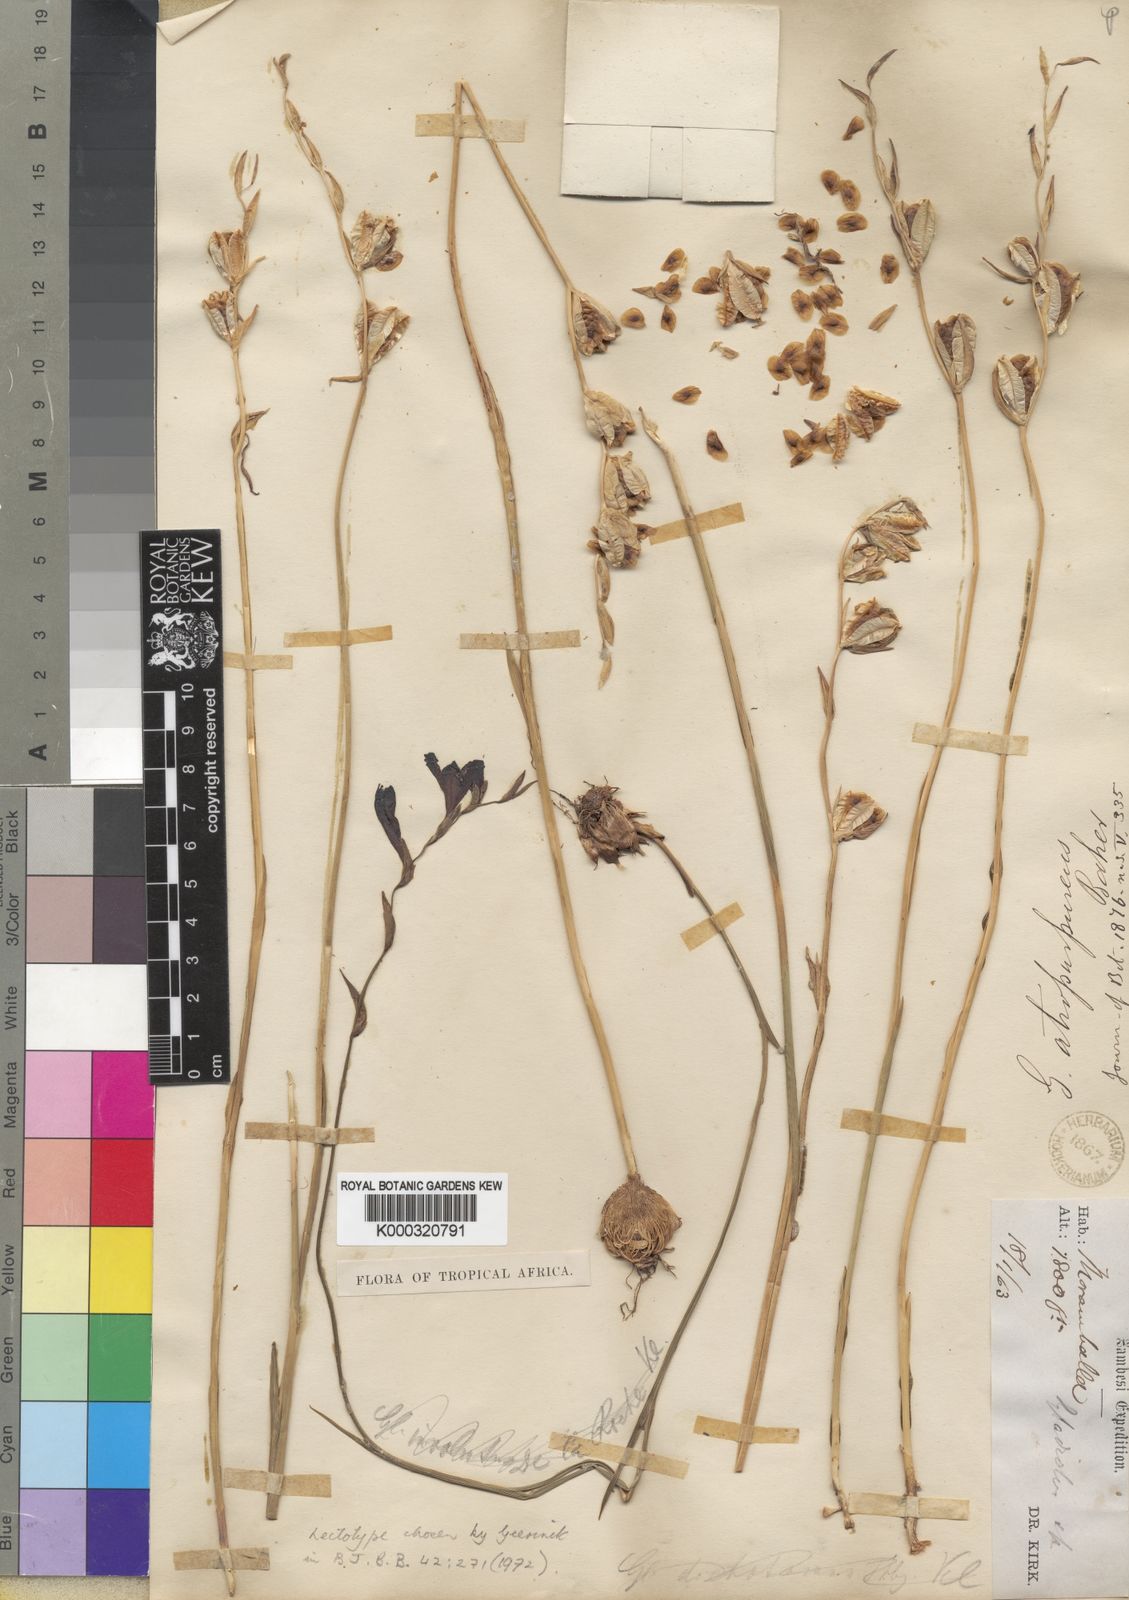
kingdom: Plantae
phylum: Tracheophyta
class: Liliopsida
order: Asparagales
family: Iridaceae
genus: Gladiolus
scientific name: Gladiolus atropurpureus
